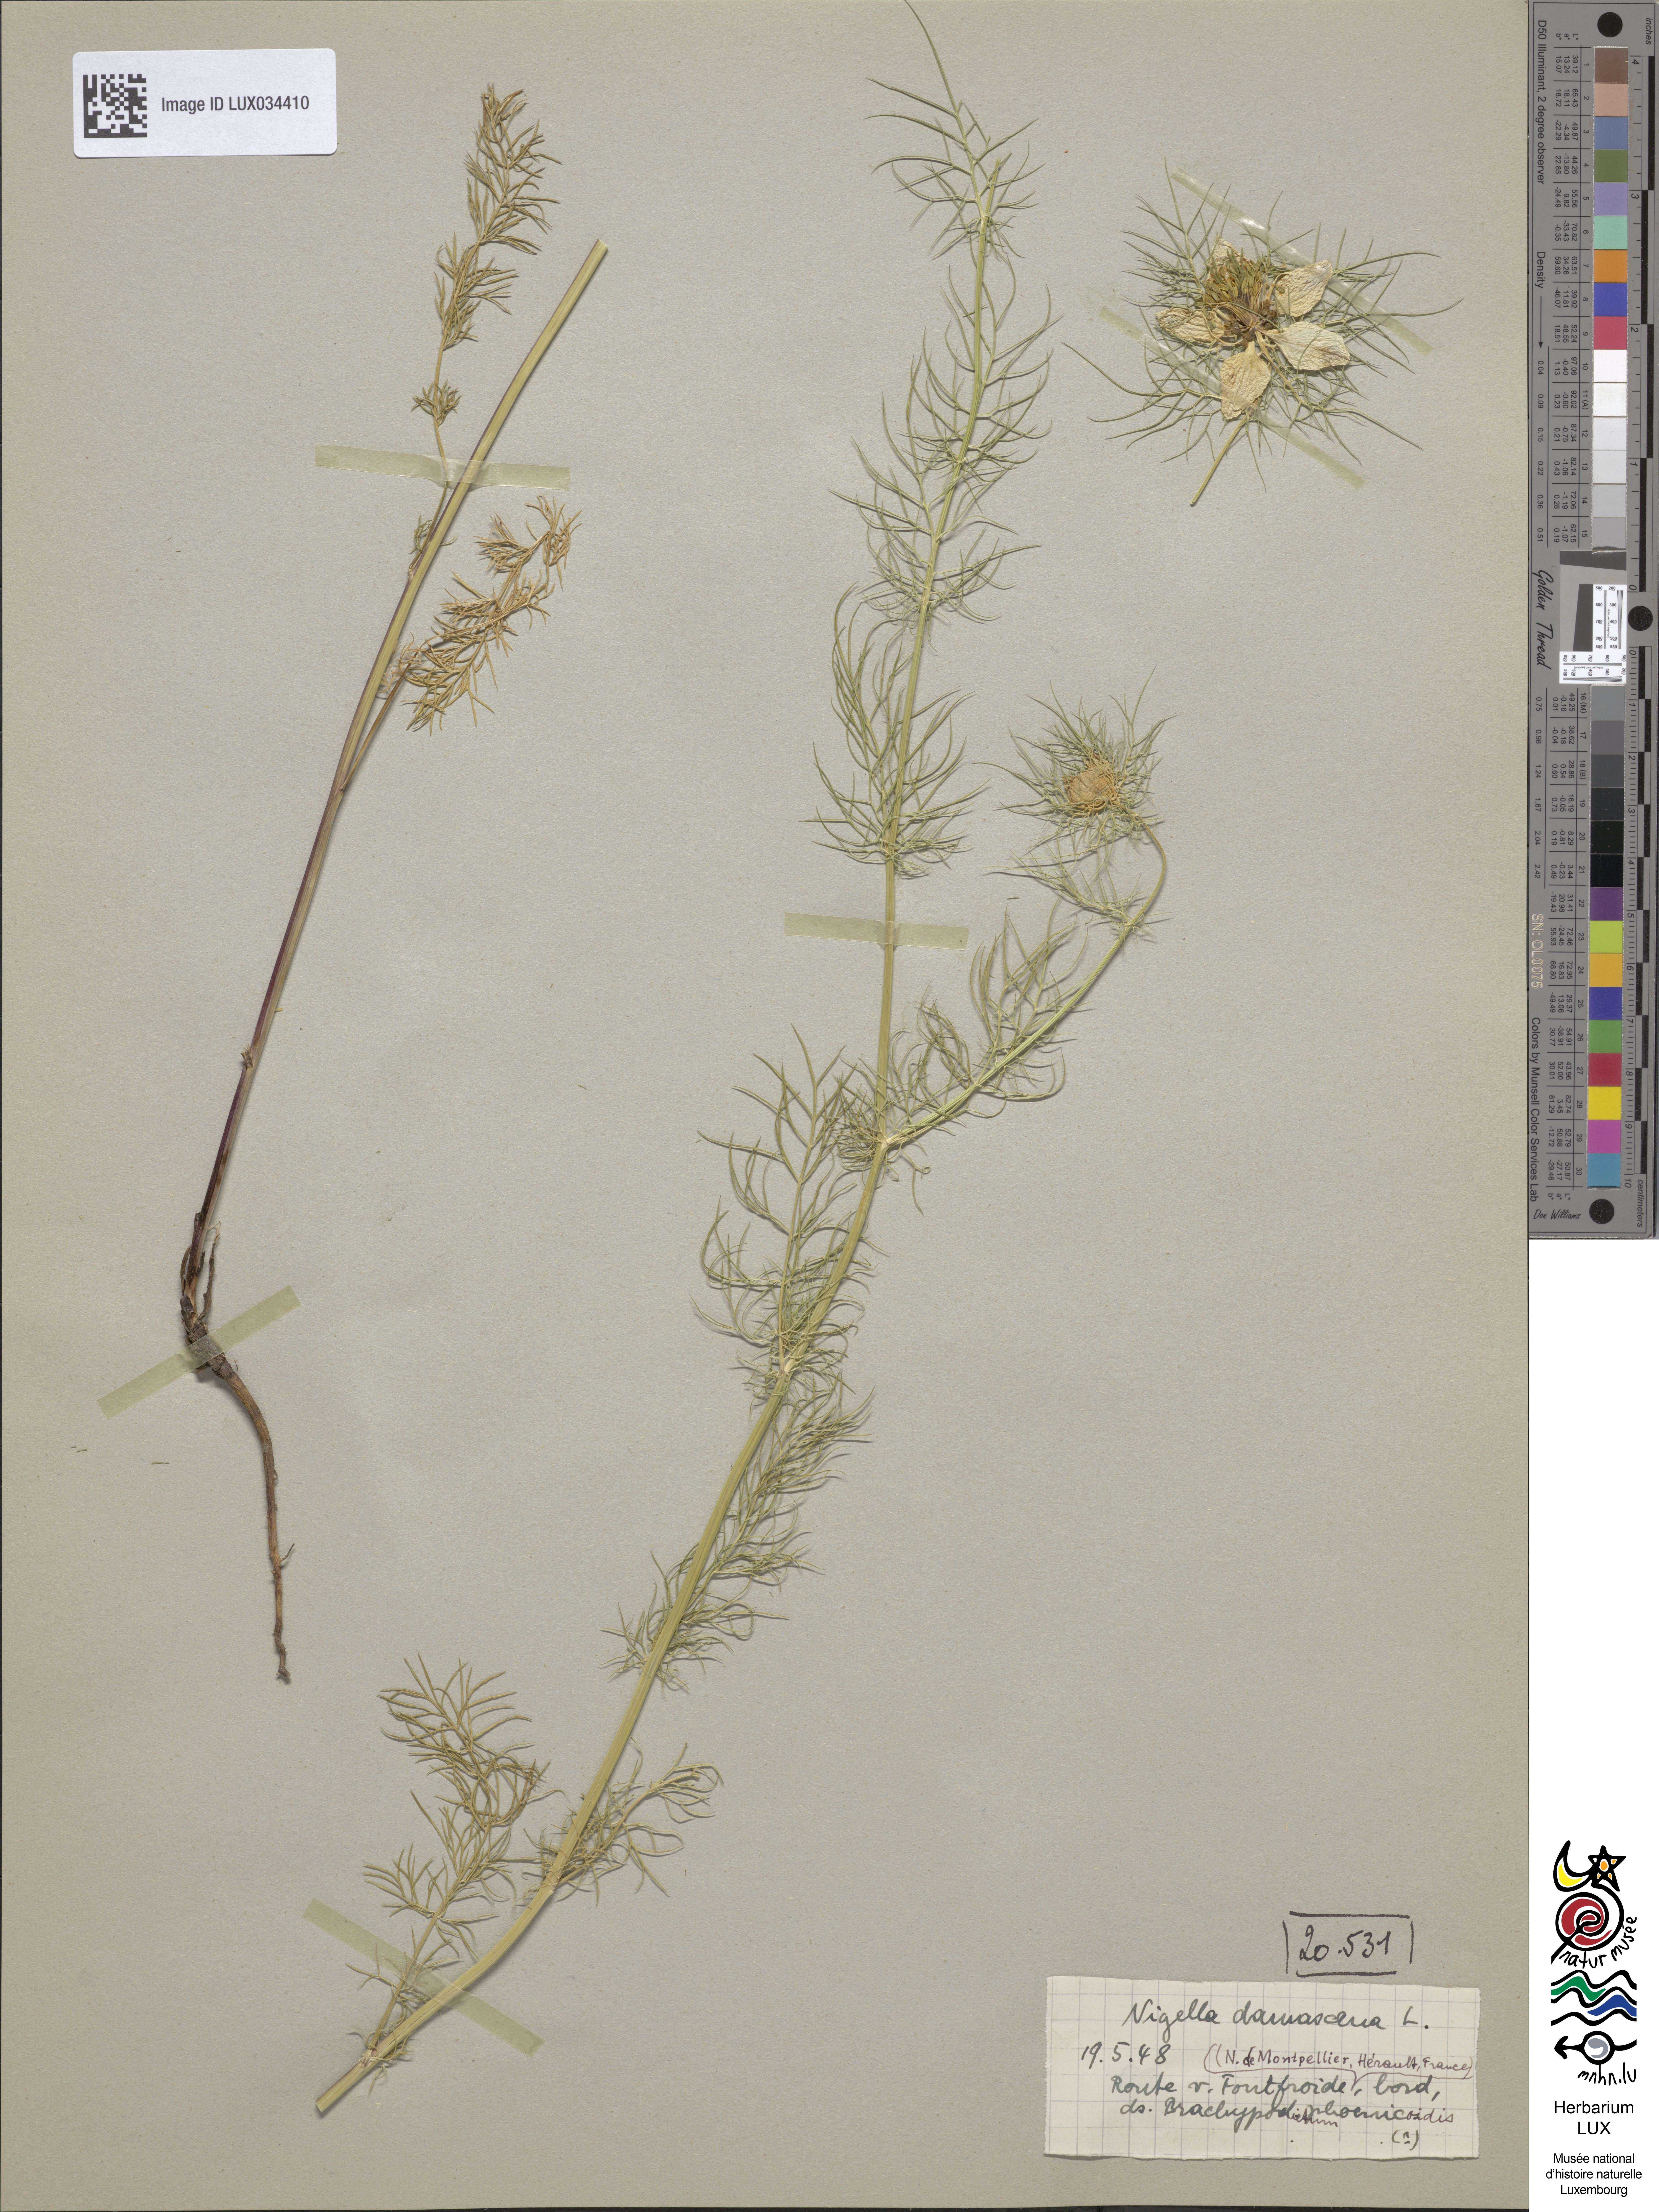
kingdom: Plantae
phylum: Tracheophyta
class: Magnoliopsida
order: Ranunculales
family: Ranunculaceae
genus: Nigella
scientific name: Nigella damascena
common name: Love-in-a-mist
